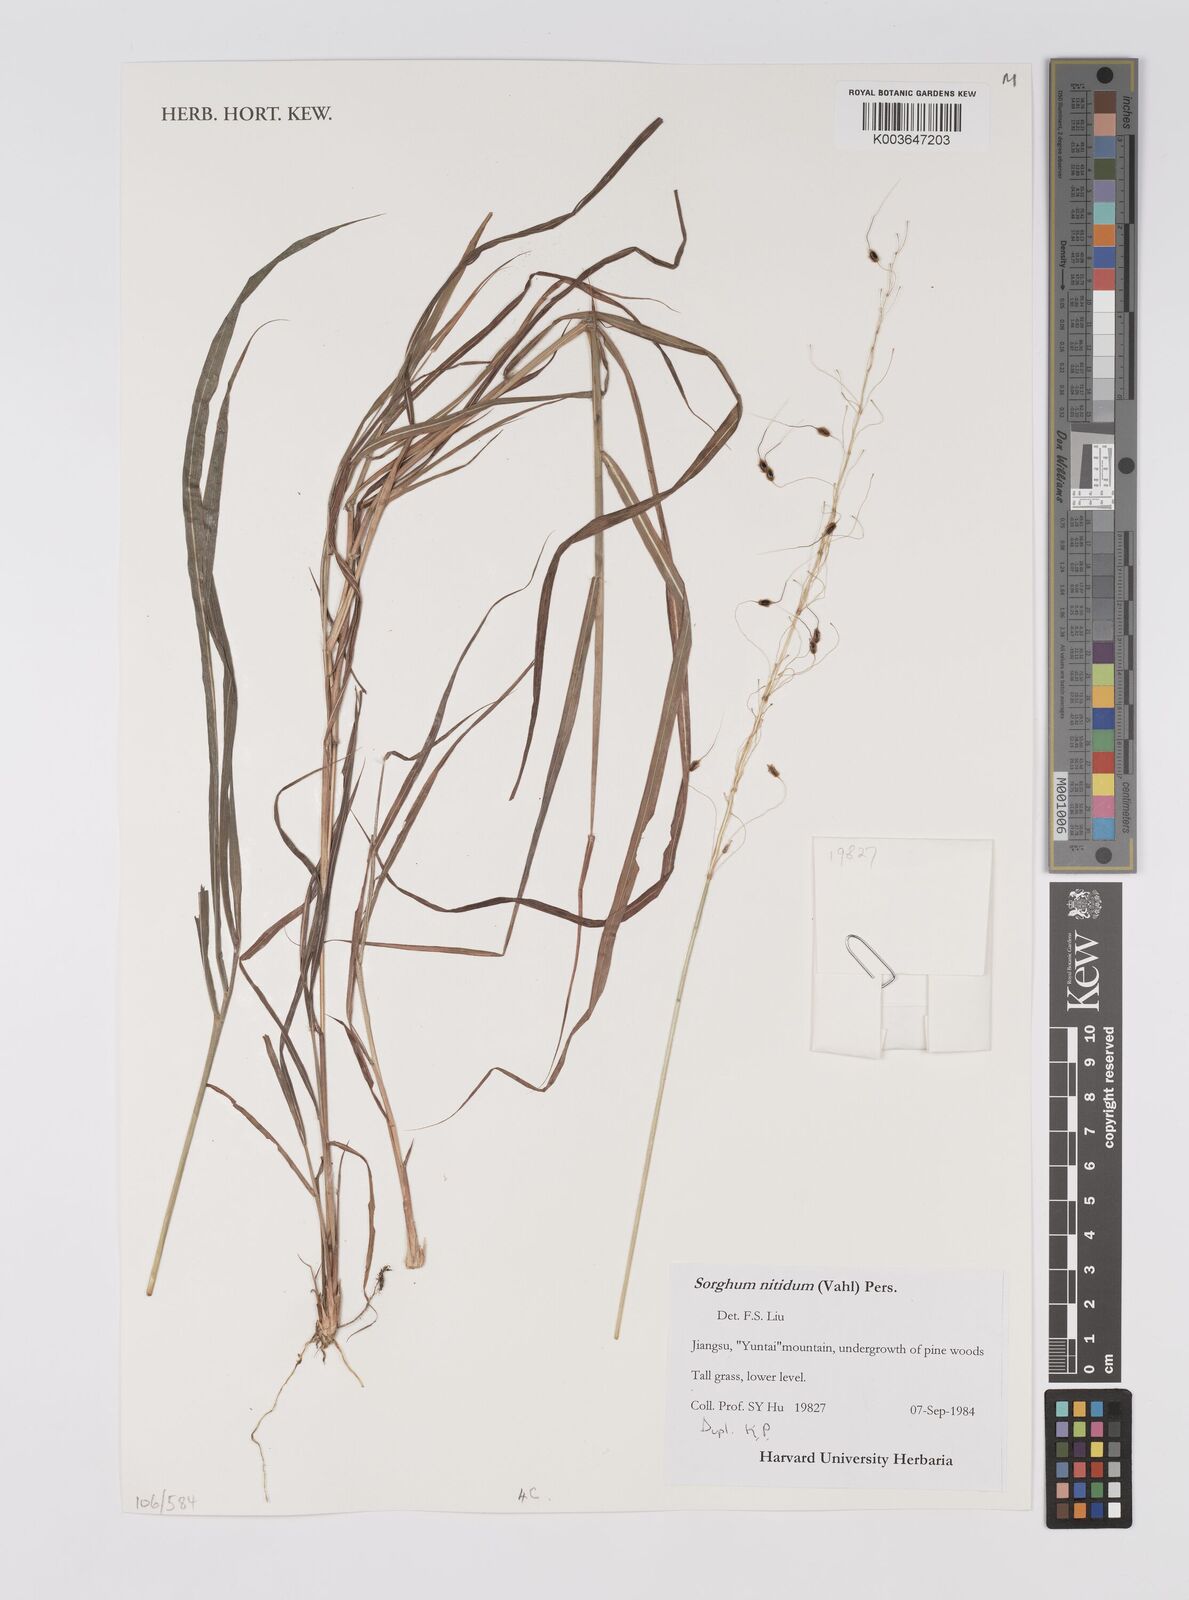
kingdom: Plantae
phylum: Tracheophyta
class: Liliopsida
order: Poales
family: Poaceae
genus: Sorghum
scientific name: Sorghum nitidum
